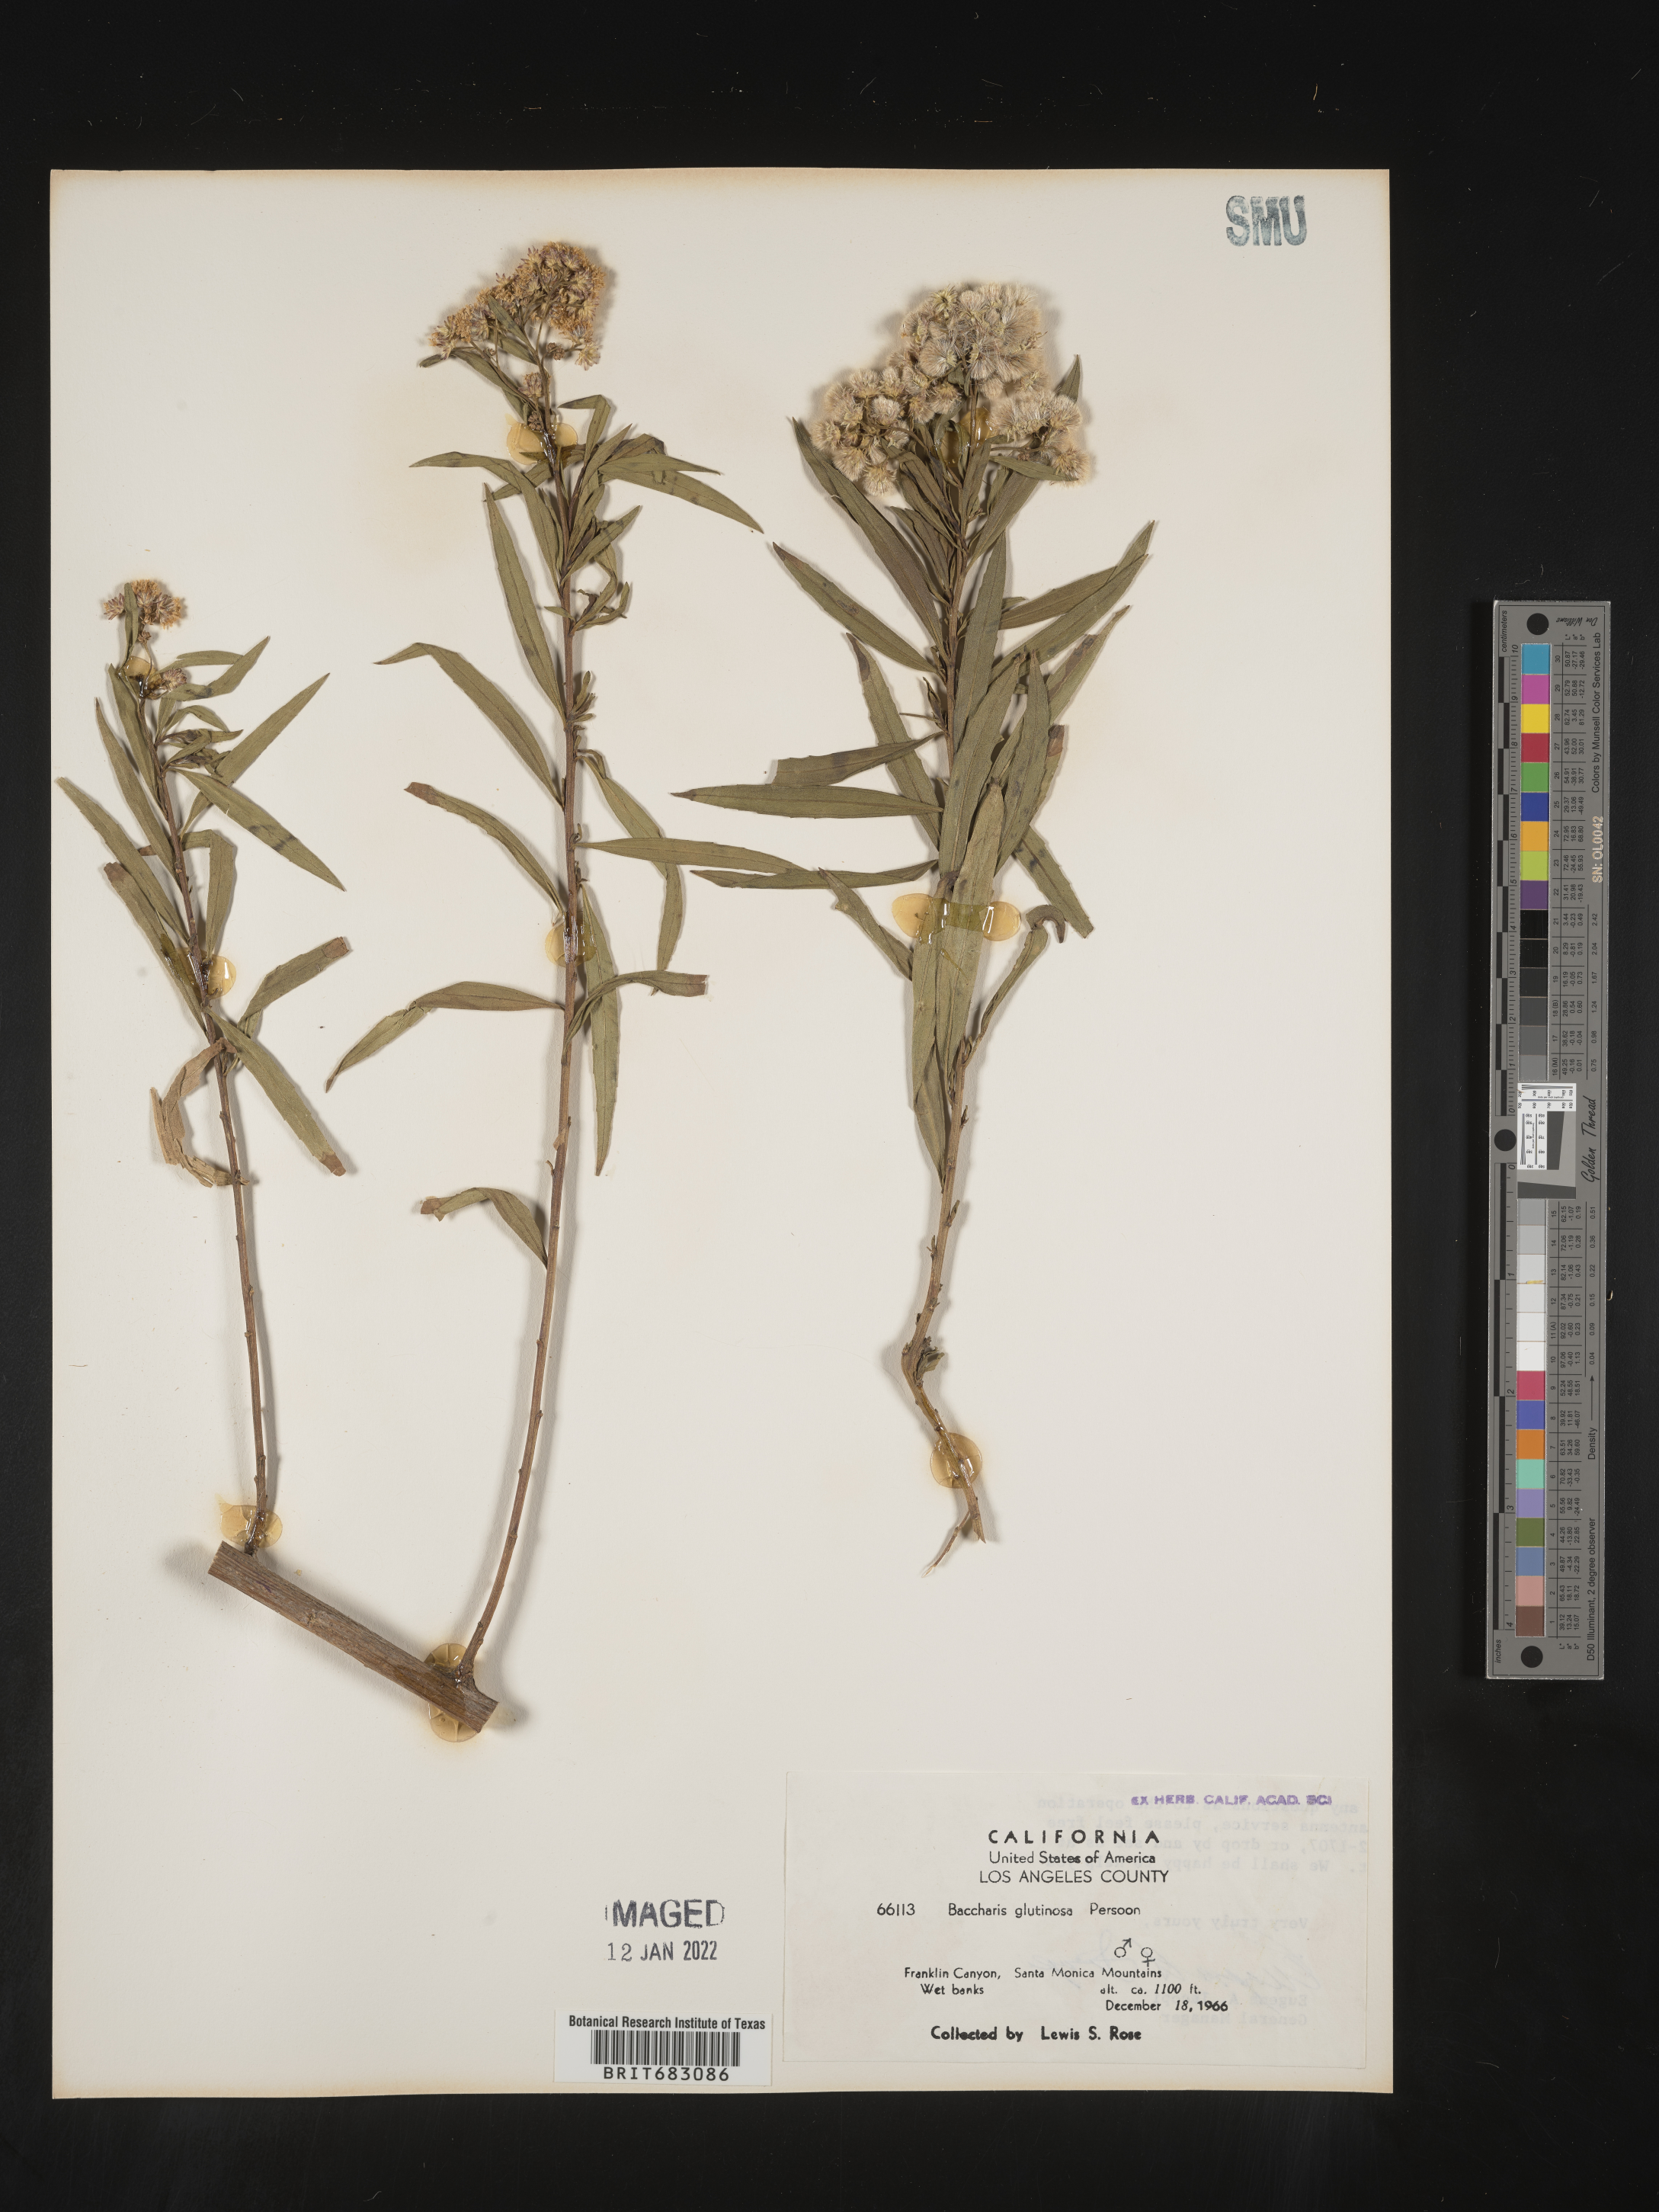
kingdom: Plantae
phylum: Tracheophyta
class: Magnoliopsida
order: Asterales
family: Asteraceae
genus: Baccharis
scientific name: Baccharis glutinosa
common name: Saltmarsh baccharis
